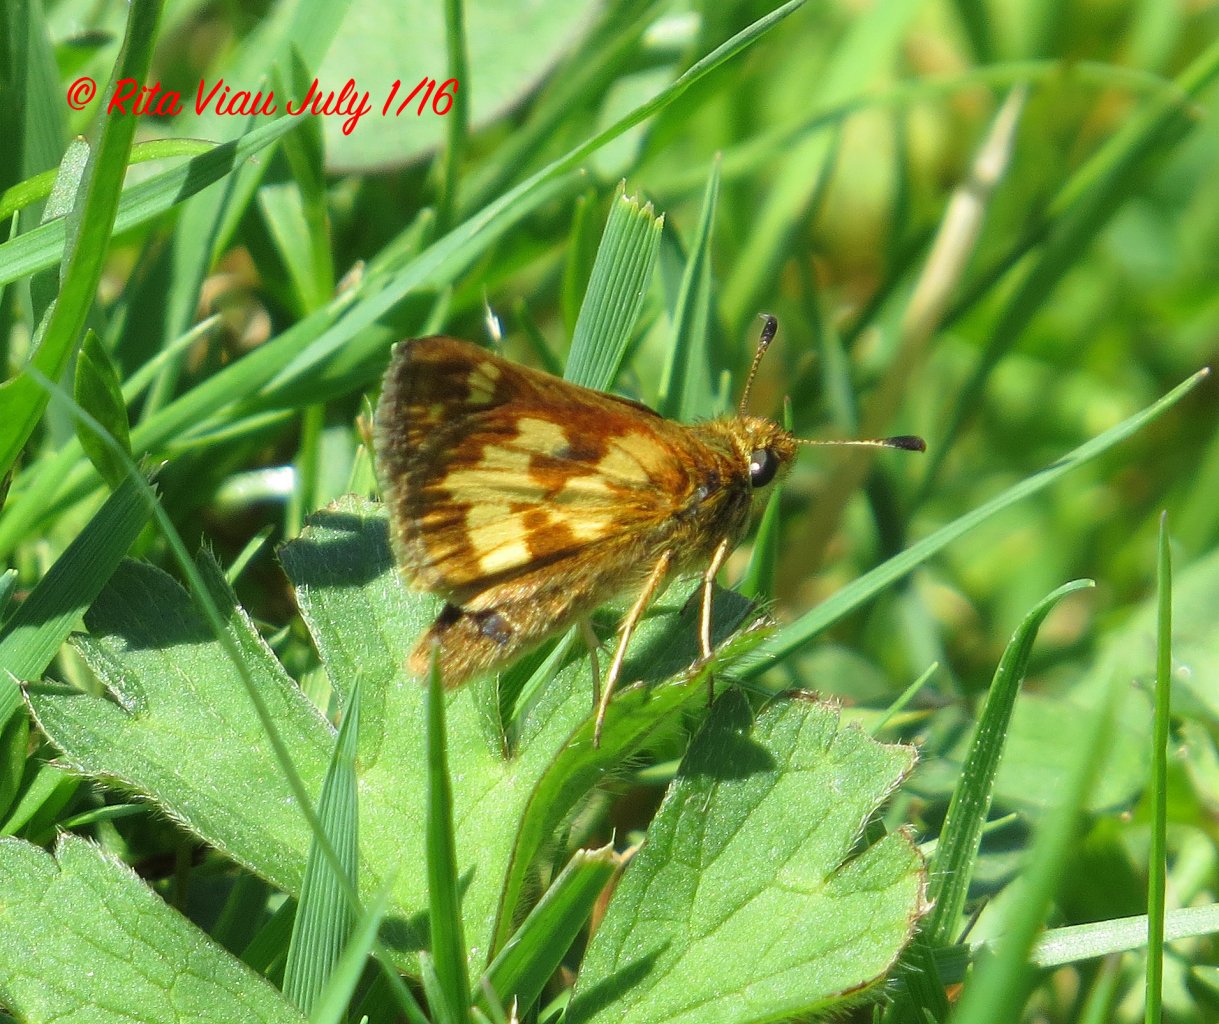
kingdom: Animalia
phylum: Arthropoda
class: Insecta
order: Lepidoptera
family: Hesperiidae
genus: Polites
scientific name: Polites coras
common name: Peck's Skipper
